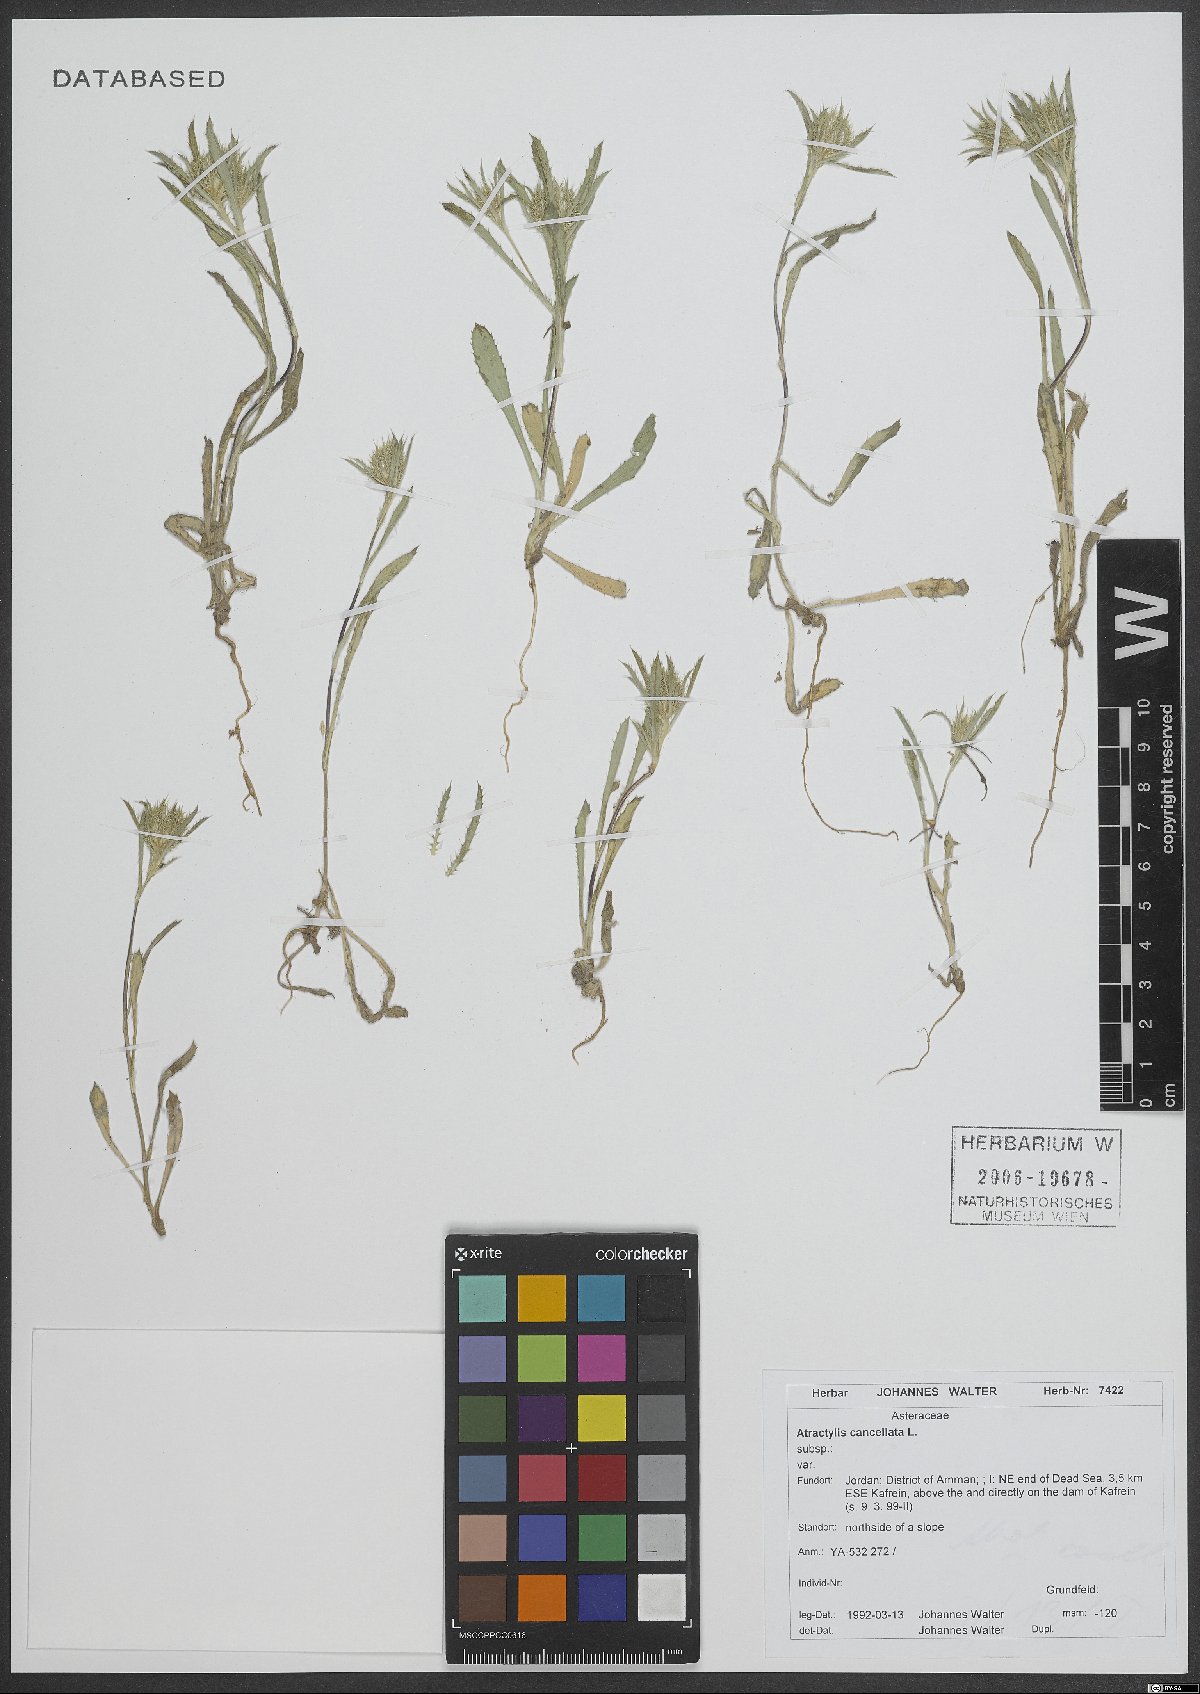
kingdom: Plantae
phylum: Tracheophyta
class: Magnoliopsida
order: Asterales
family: Asteraceae
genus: Atractylis
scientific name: Atractylis cancellata
